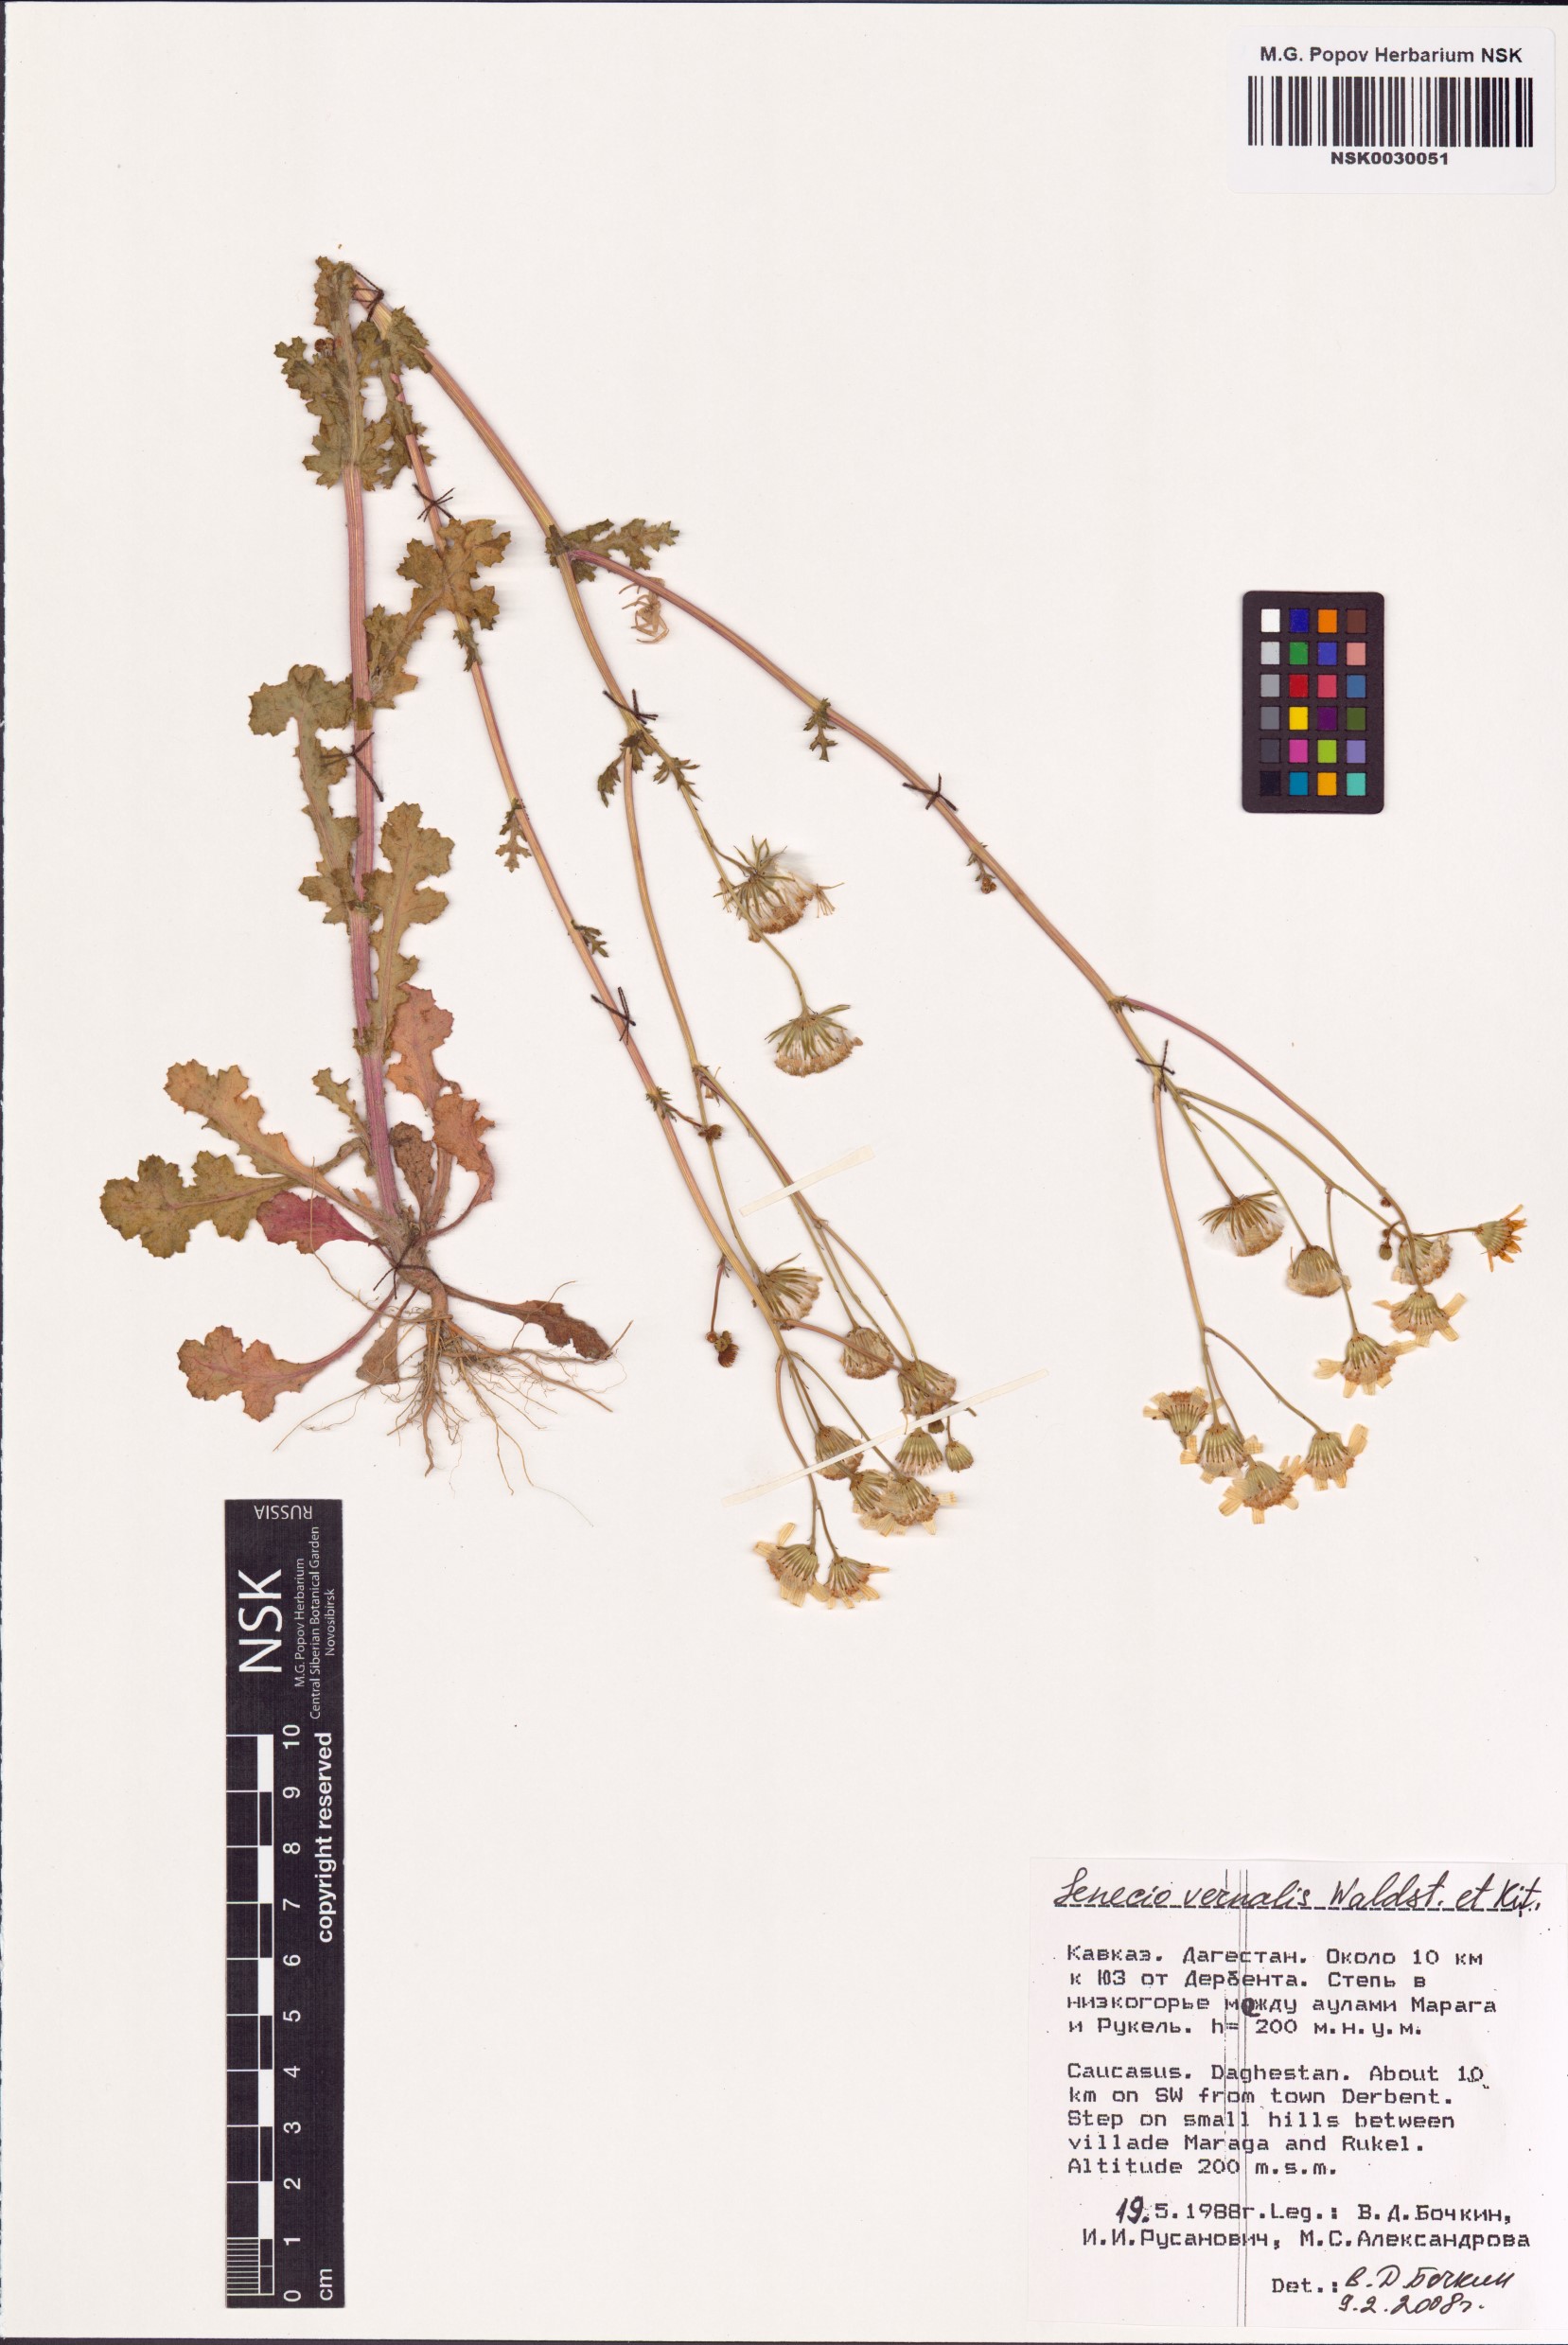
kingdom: Plantae
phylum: Tracheophyta
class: Magnoliopsida
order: Asterales
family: Asteraceae
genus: Senecio
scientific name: Senecio vernalis
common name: Eastern groundsel
